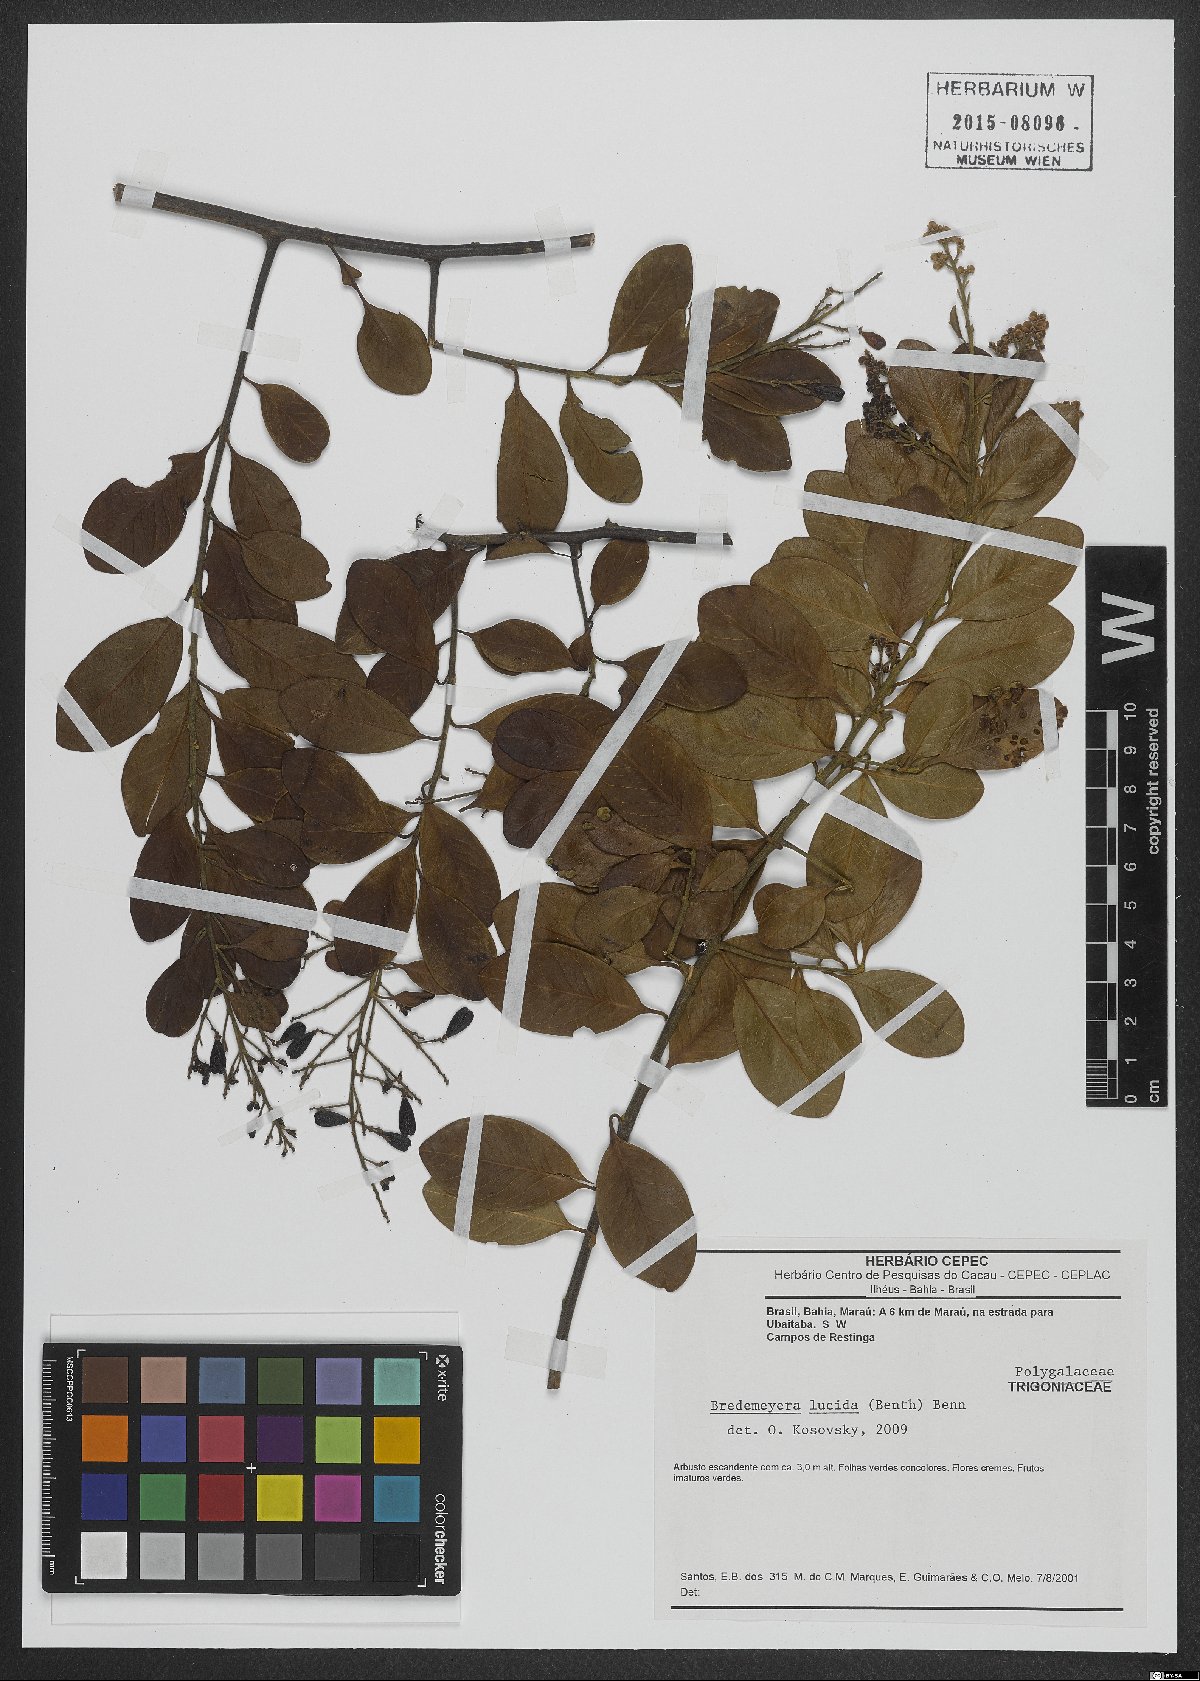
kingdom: Plantae
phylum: Tracheophyta
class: Magnoliopsida
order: Fabales
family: Polygalaceae
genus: Bredemeyera
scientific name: Bredemeyera lucida
